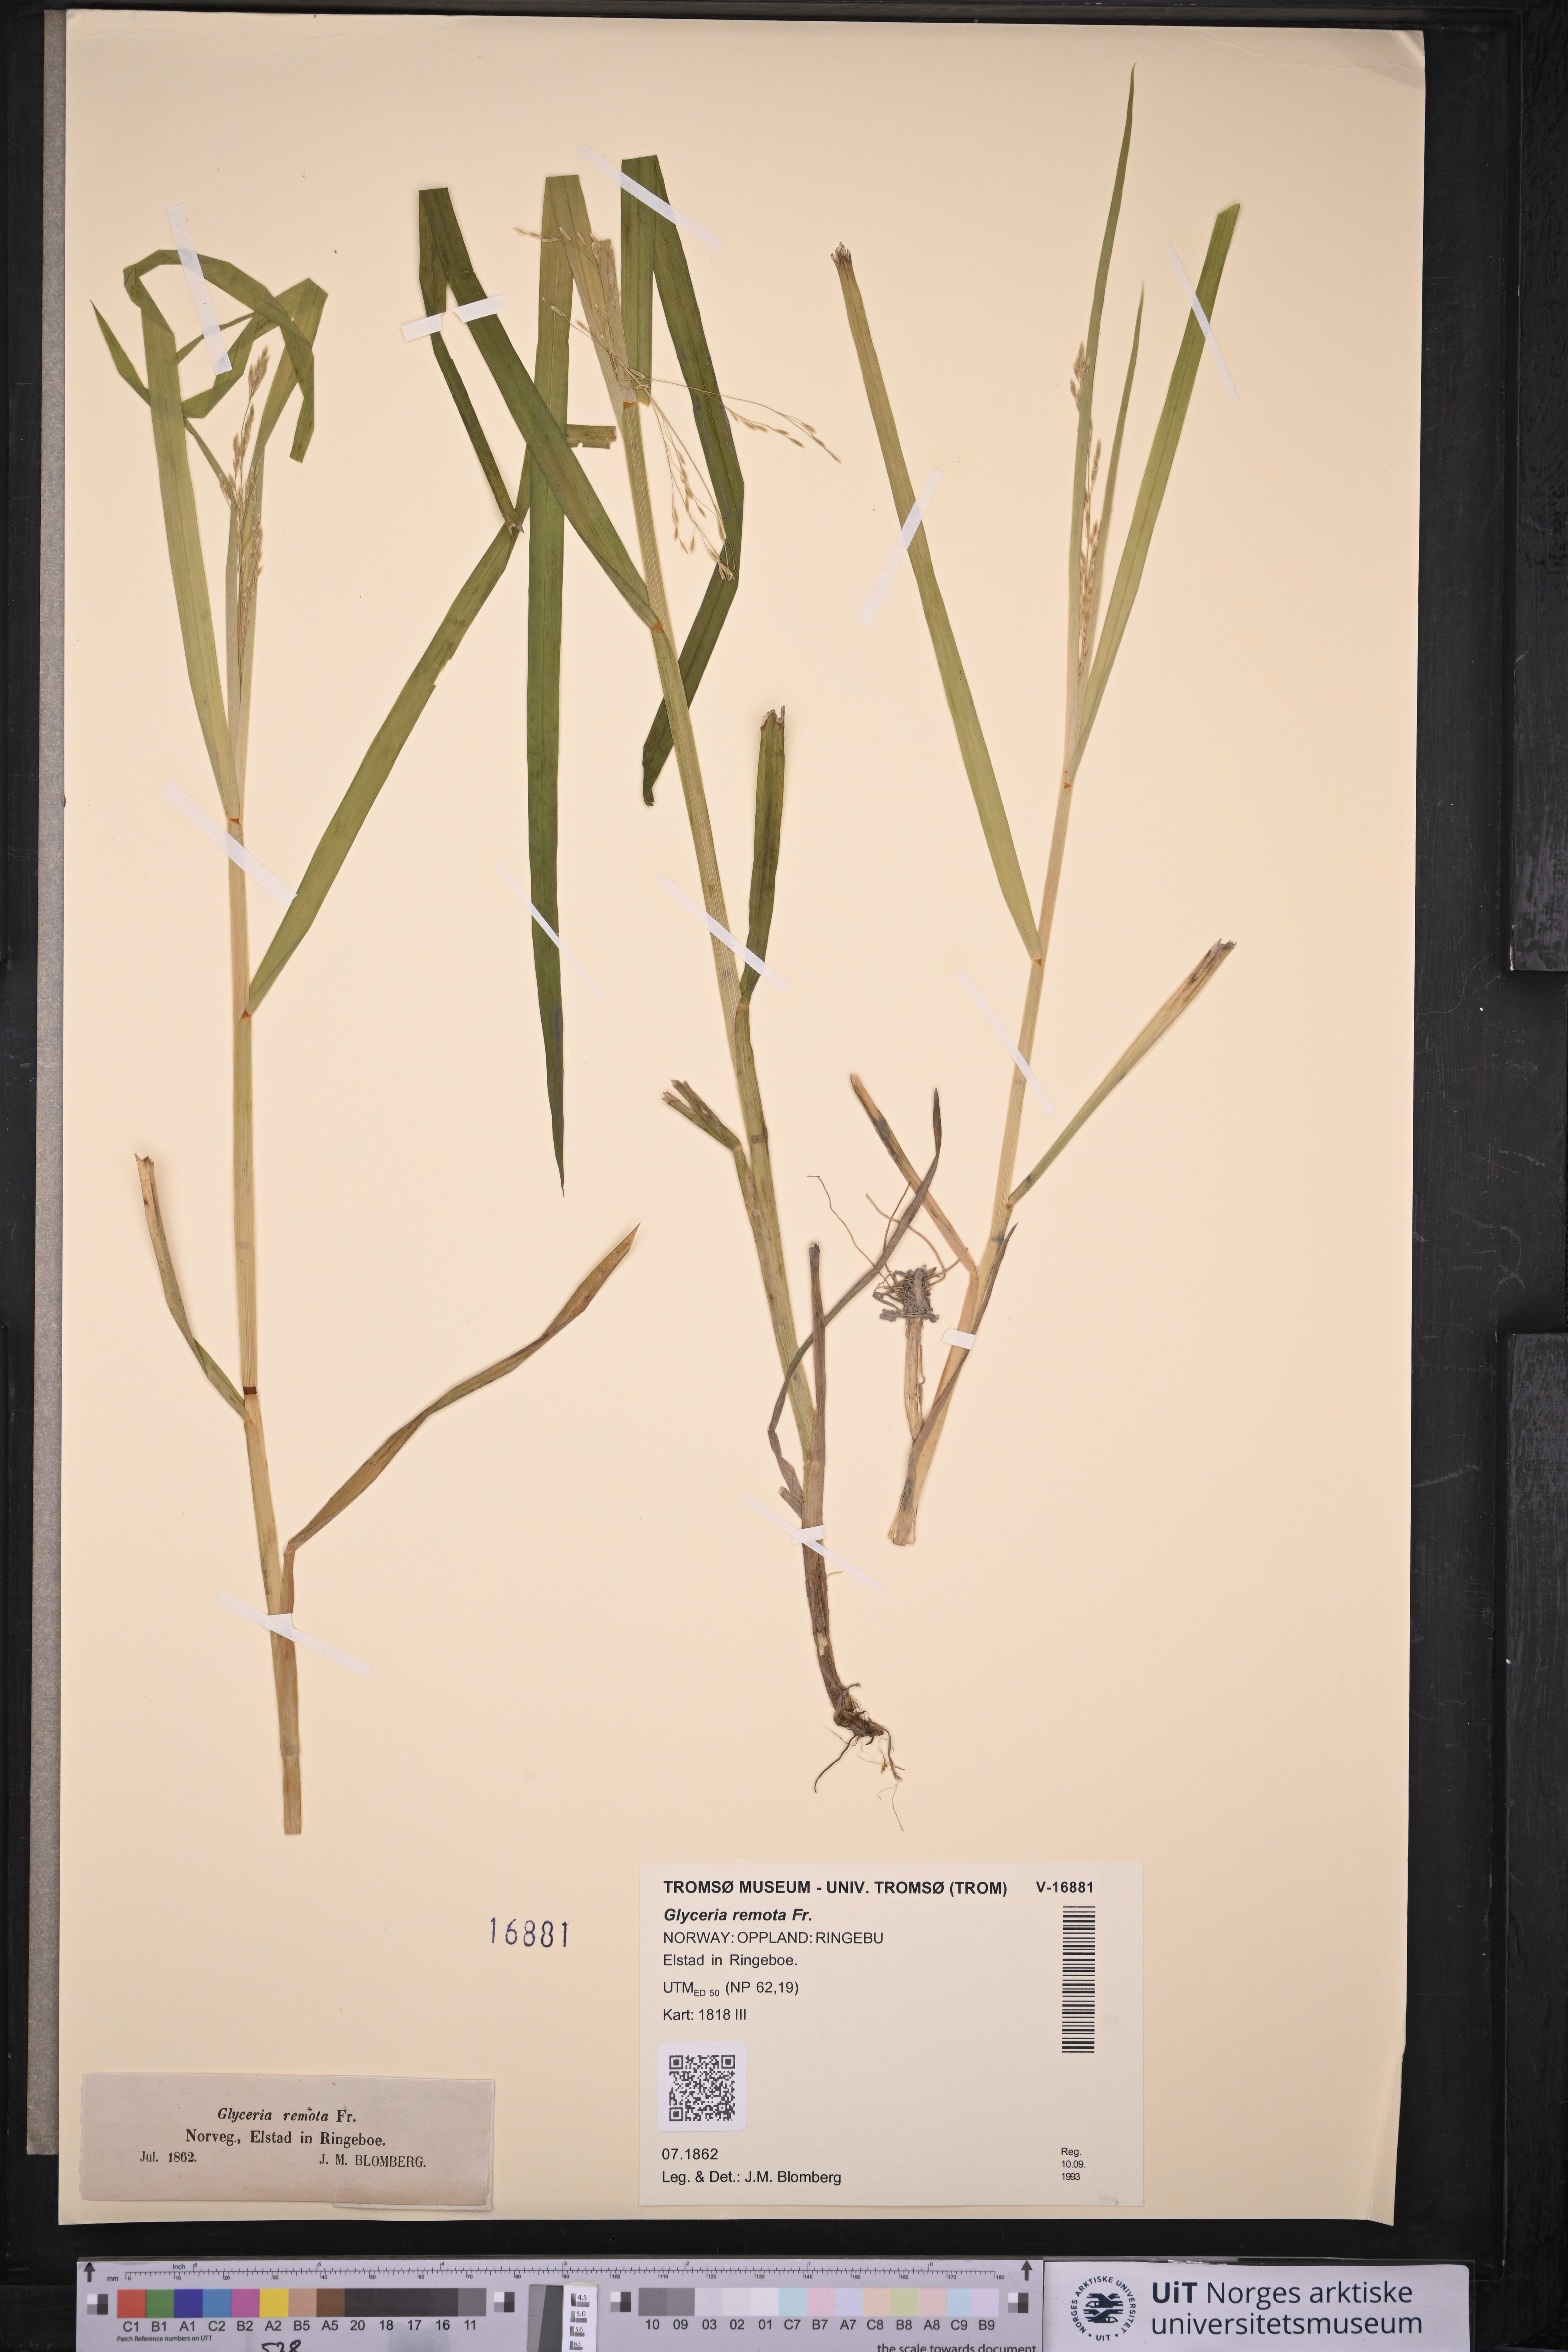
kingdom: Plantae
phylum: Tracheophyta
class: Liliopsida
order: Poales
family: Poaceae
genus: Glyceria
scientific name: Glyceria lithuanica
